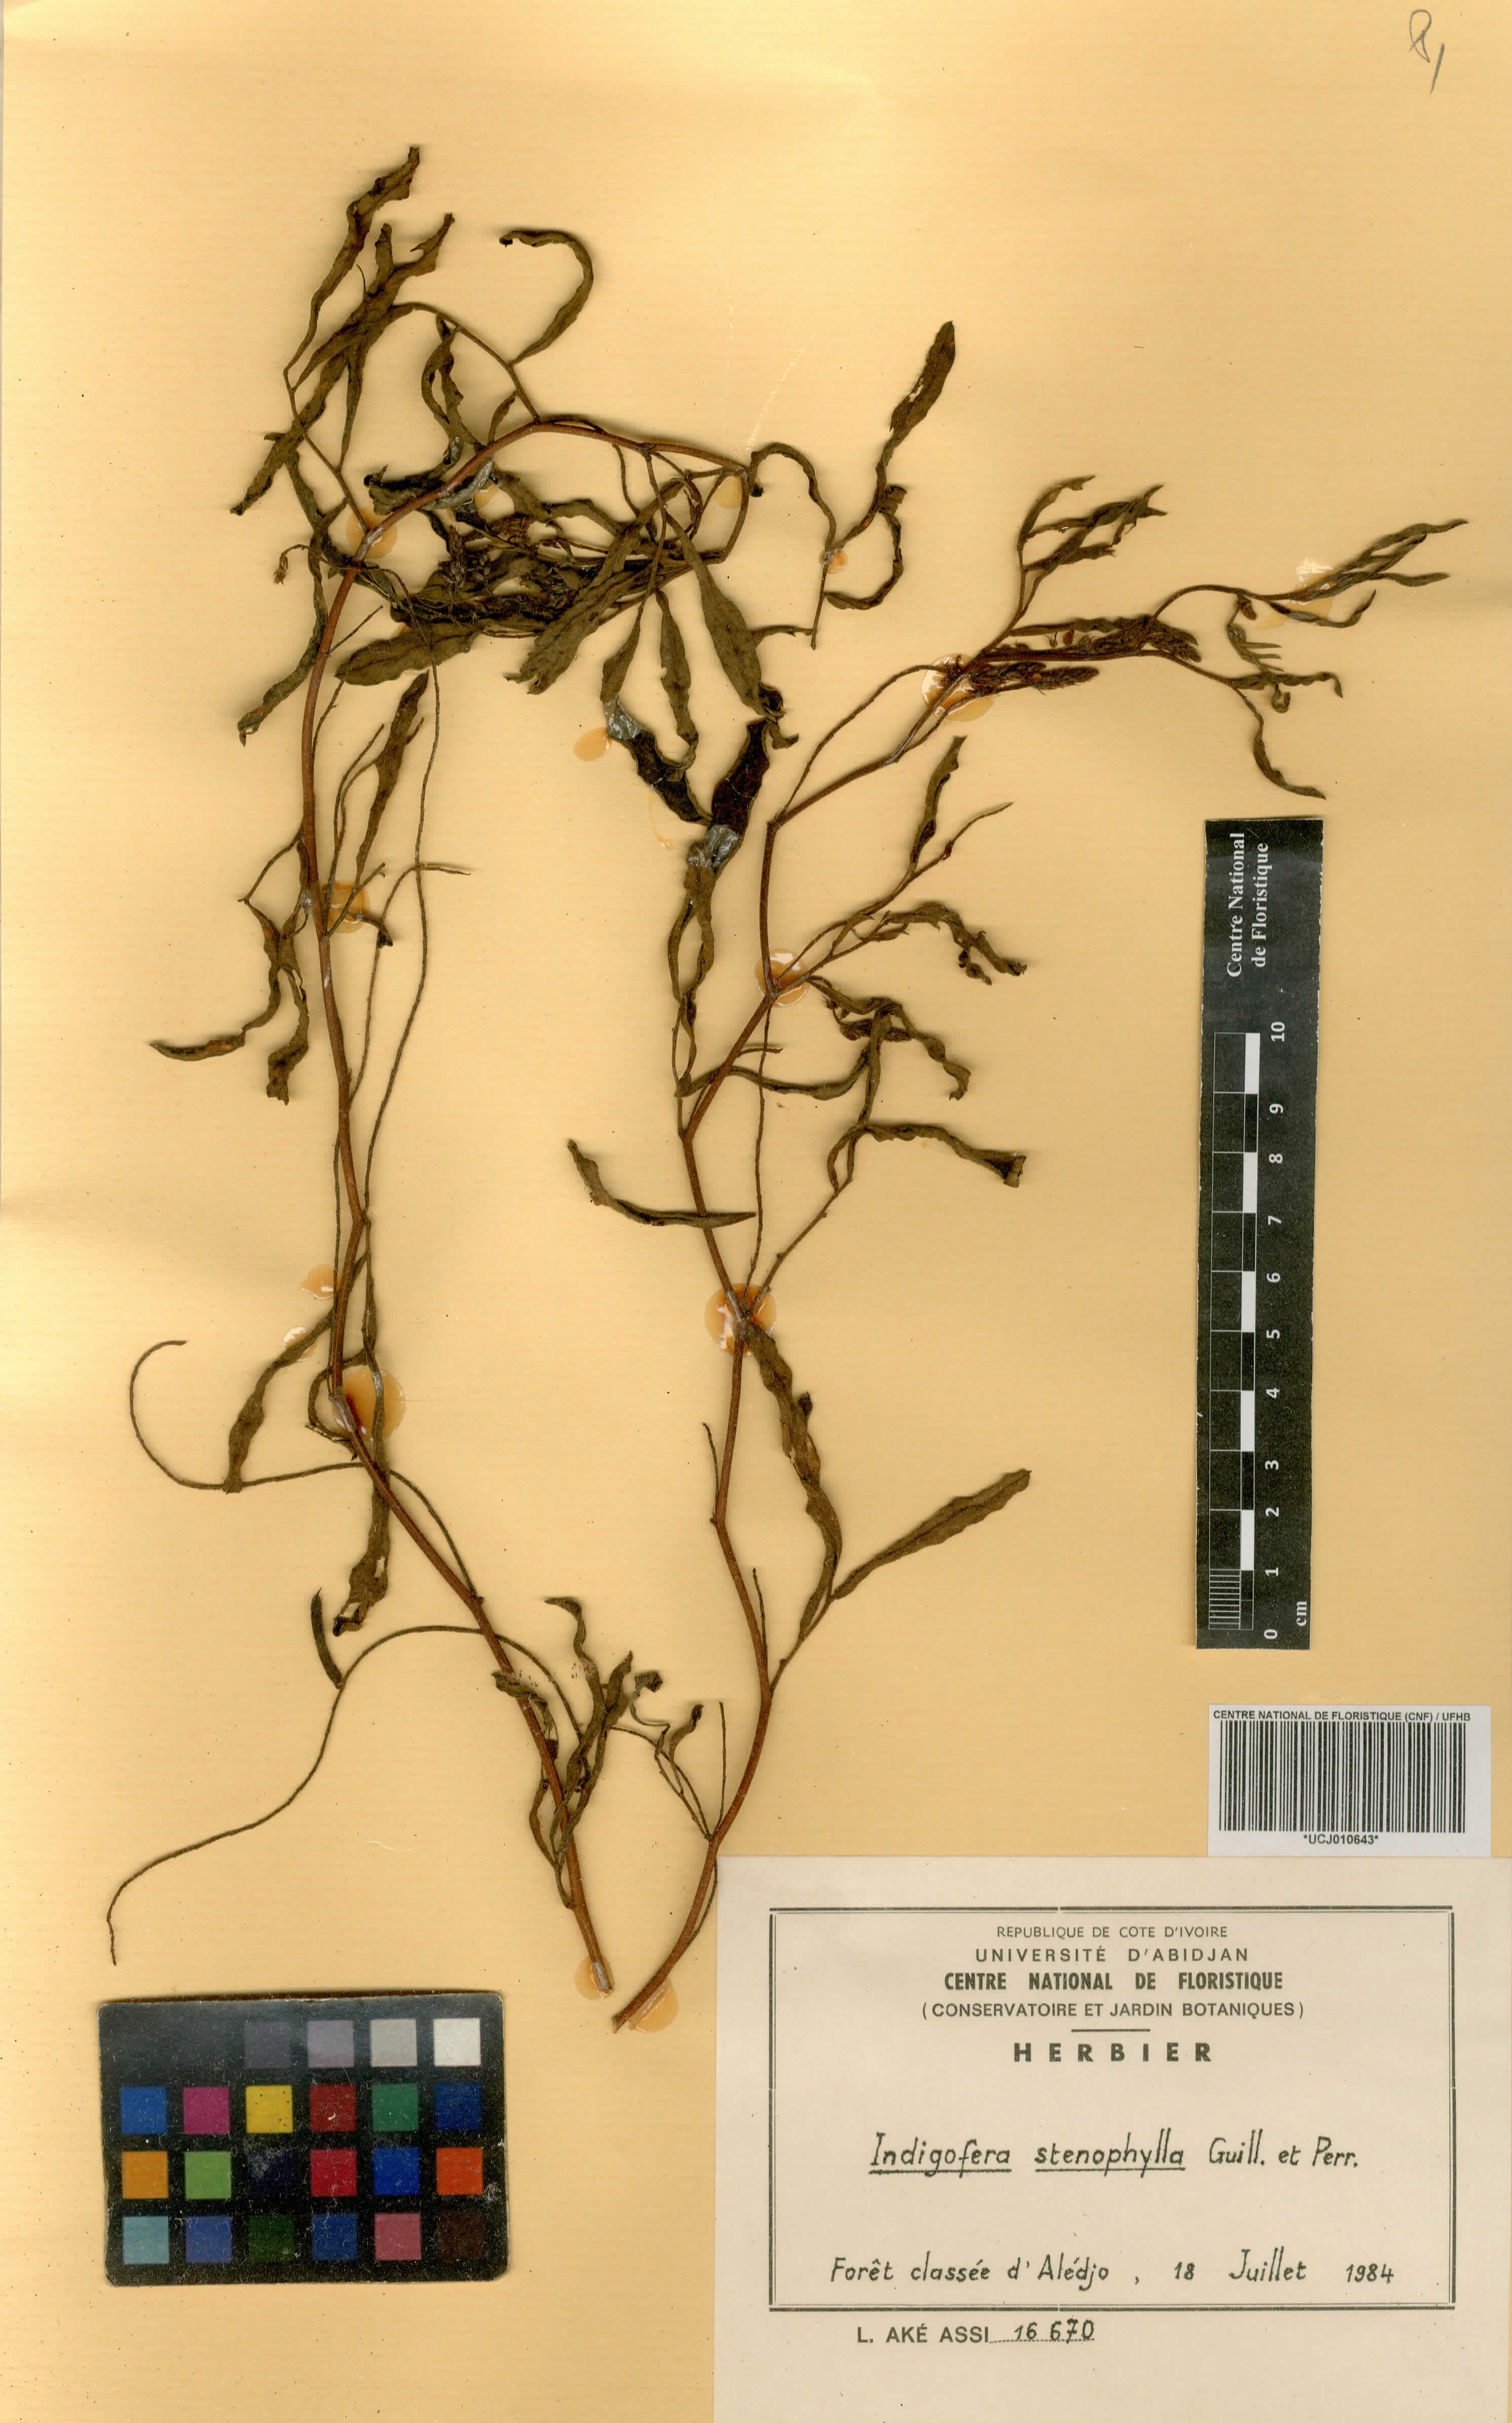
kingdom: Plantae
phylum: Tracheophyta
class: Magnoliopsida
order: Fabales
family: Fabaceae
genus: Indigofera
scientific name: Indigofera suffruticosa
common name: Anil de pasto
